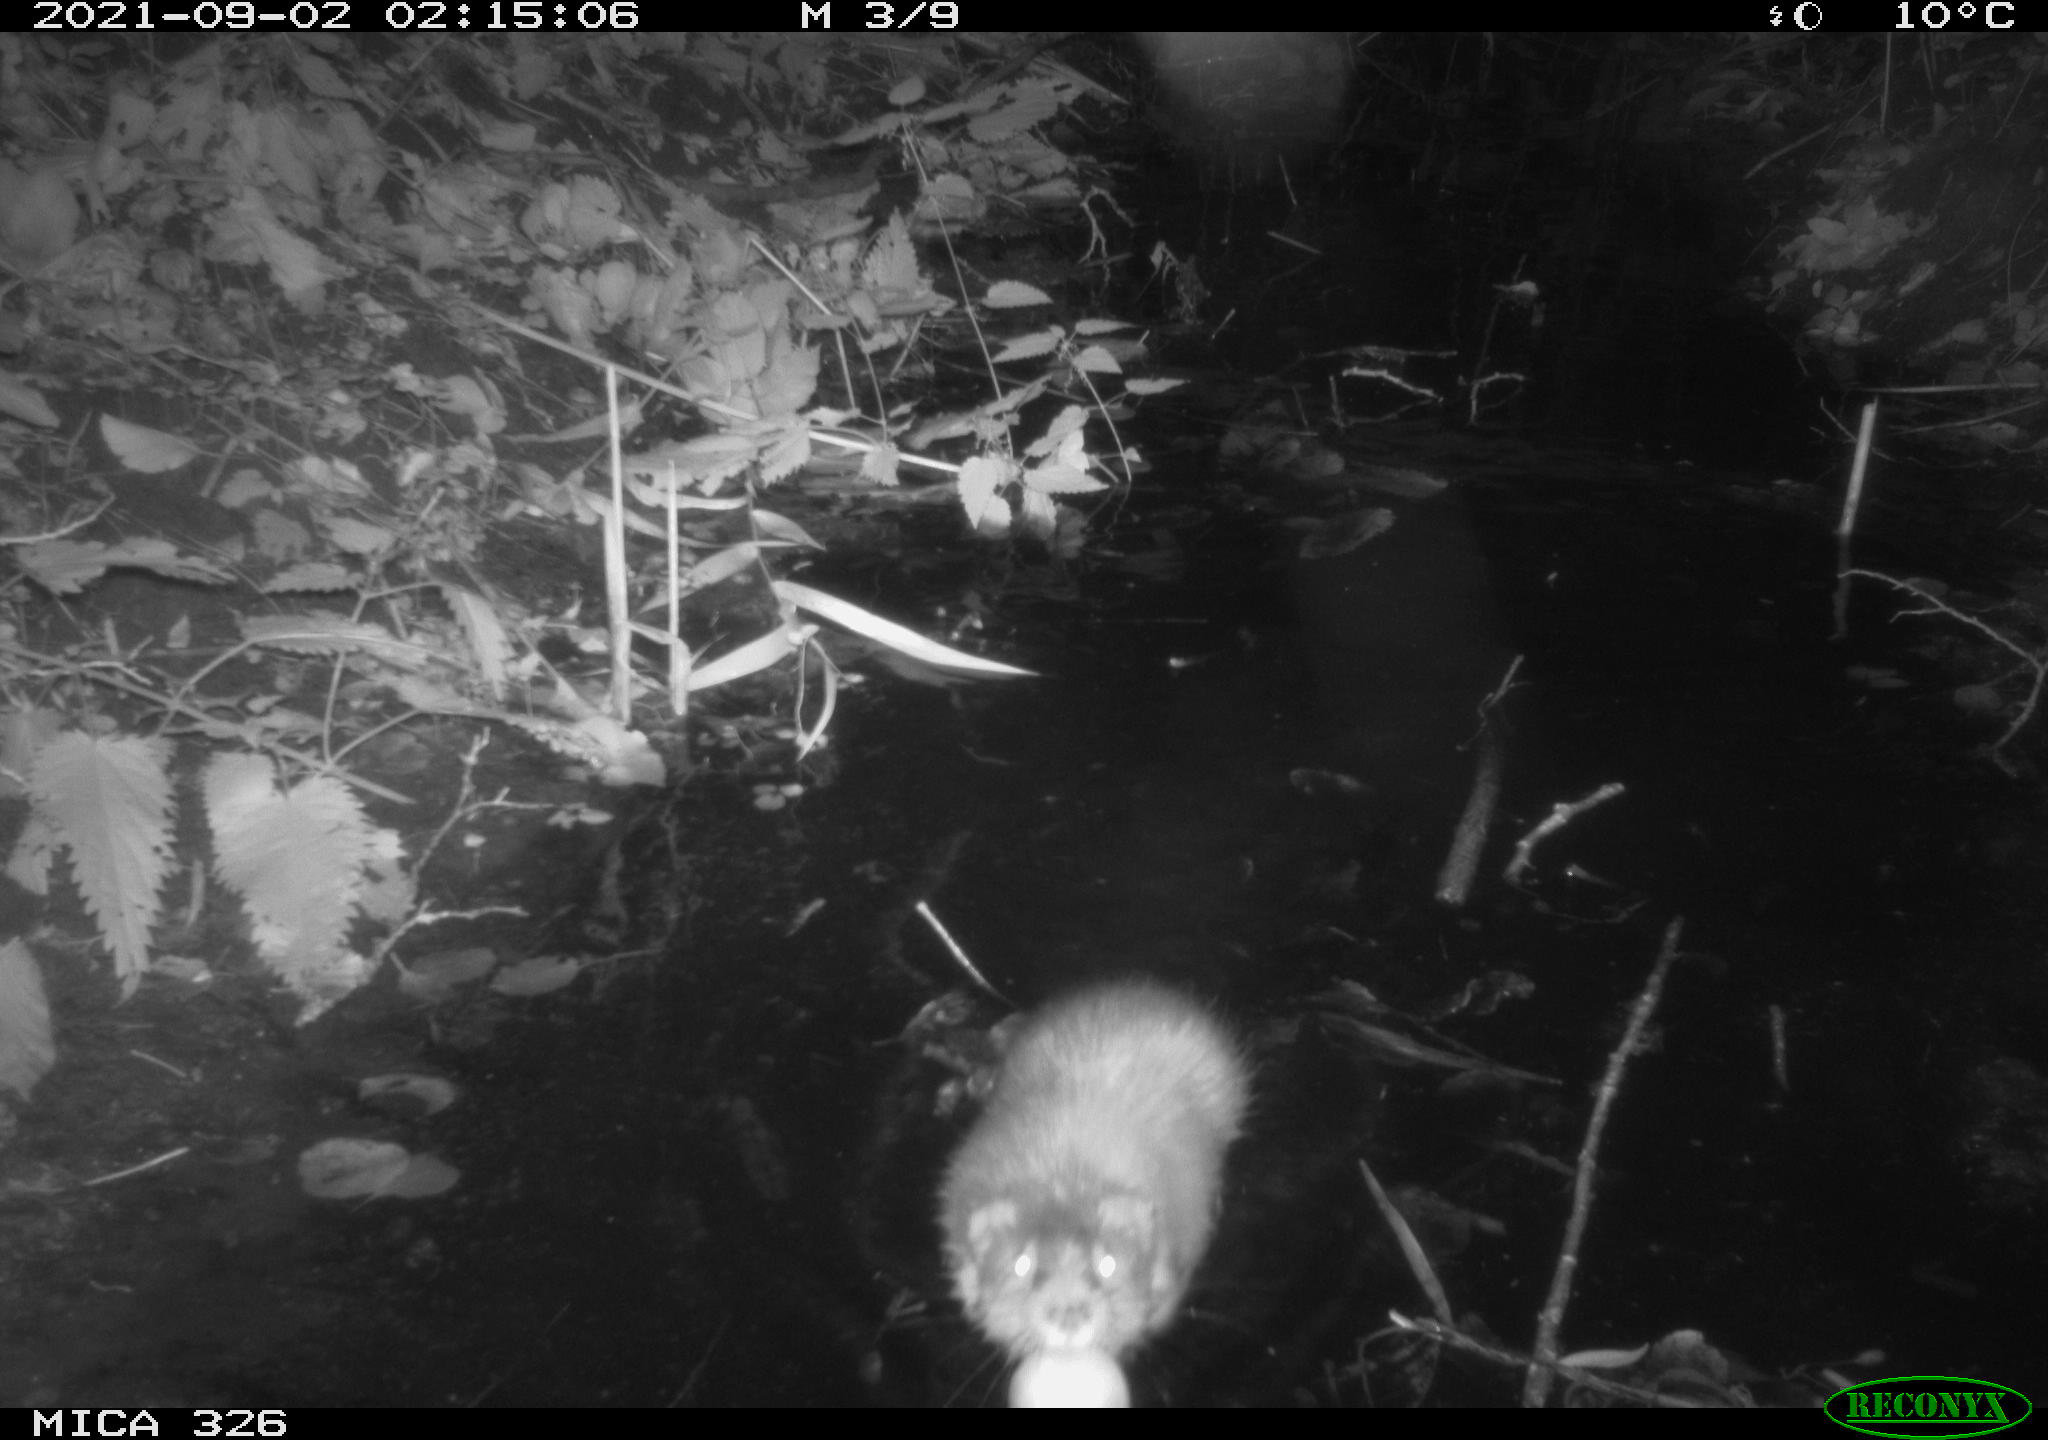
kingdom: Animalia
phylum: Chordata
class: Mammalia
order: Rodentia
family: Cricetidae
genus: Ondatra
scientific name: Ondatra zibethicus
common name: Muskrat
